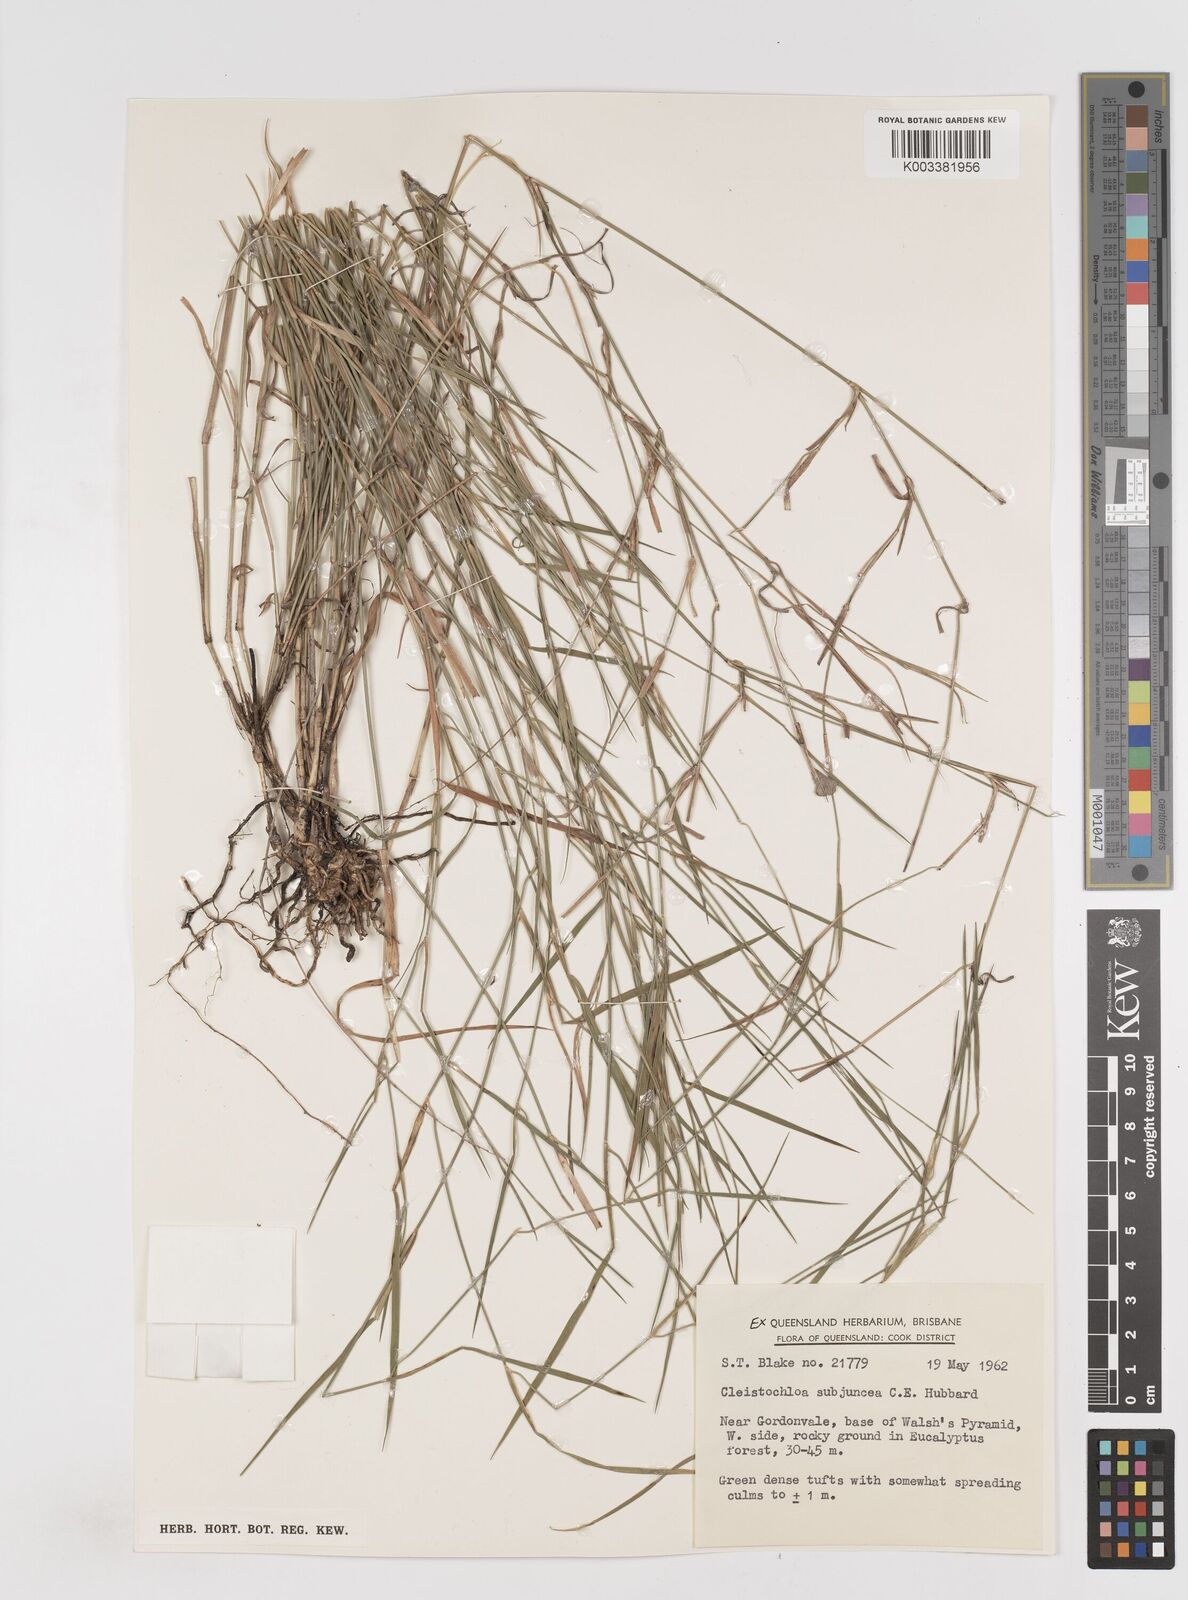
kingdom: Plantae
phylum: Tracheophyta
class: Liliopsida
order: Poales
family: Poaceae
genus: Cleistochloa
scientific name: Cleistochloa subjuncea
